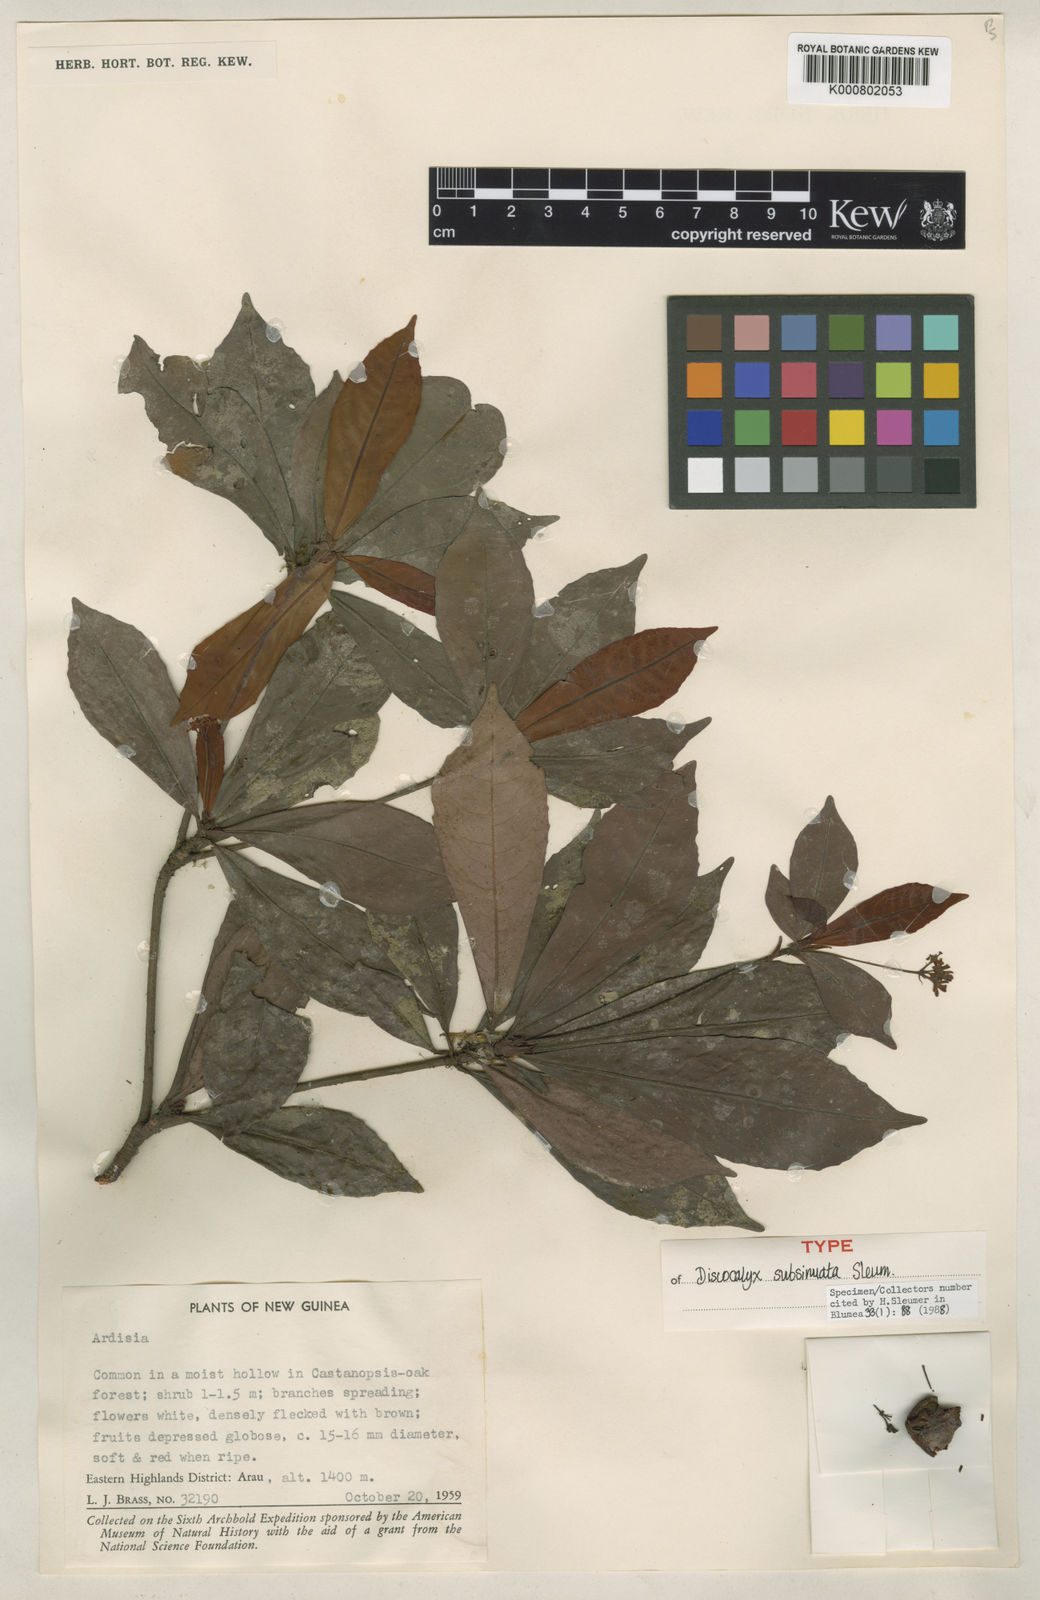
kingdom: Plantae
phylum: Tracheophyta
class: Magnoliopsida
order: Ericales
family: Primulaceae
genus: Discocalyx
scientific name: Discocalyx subsinuata
